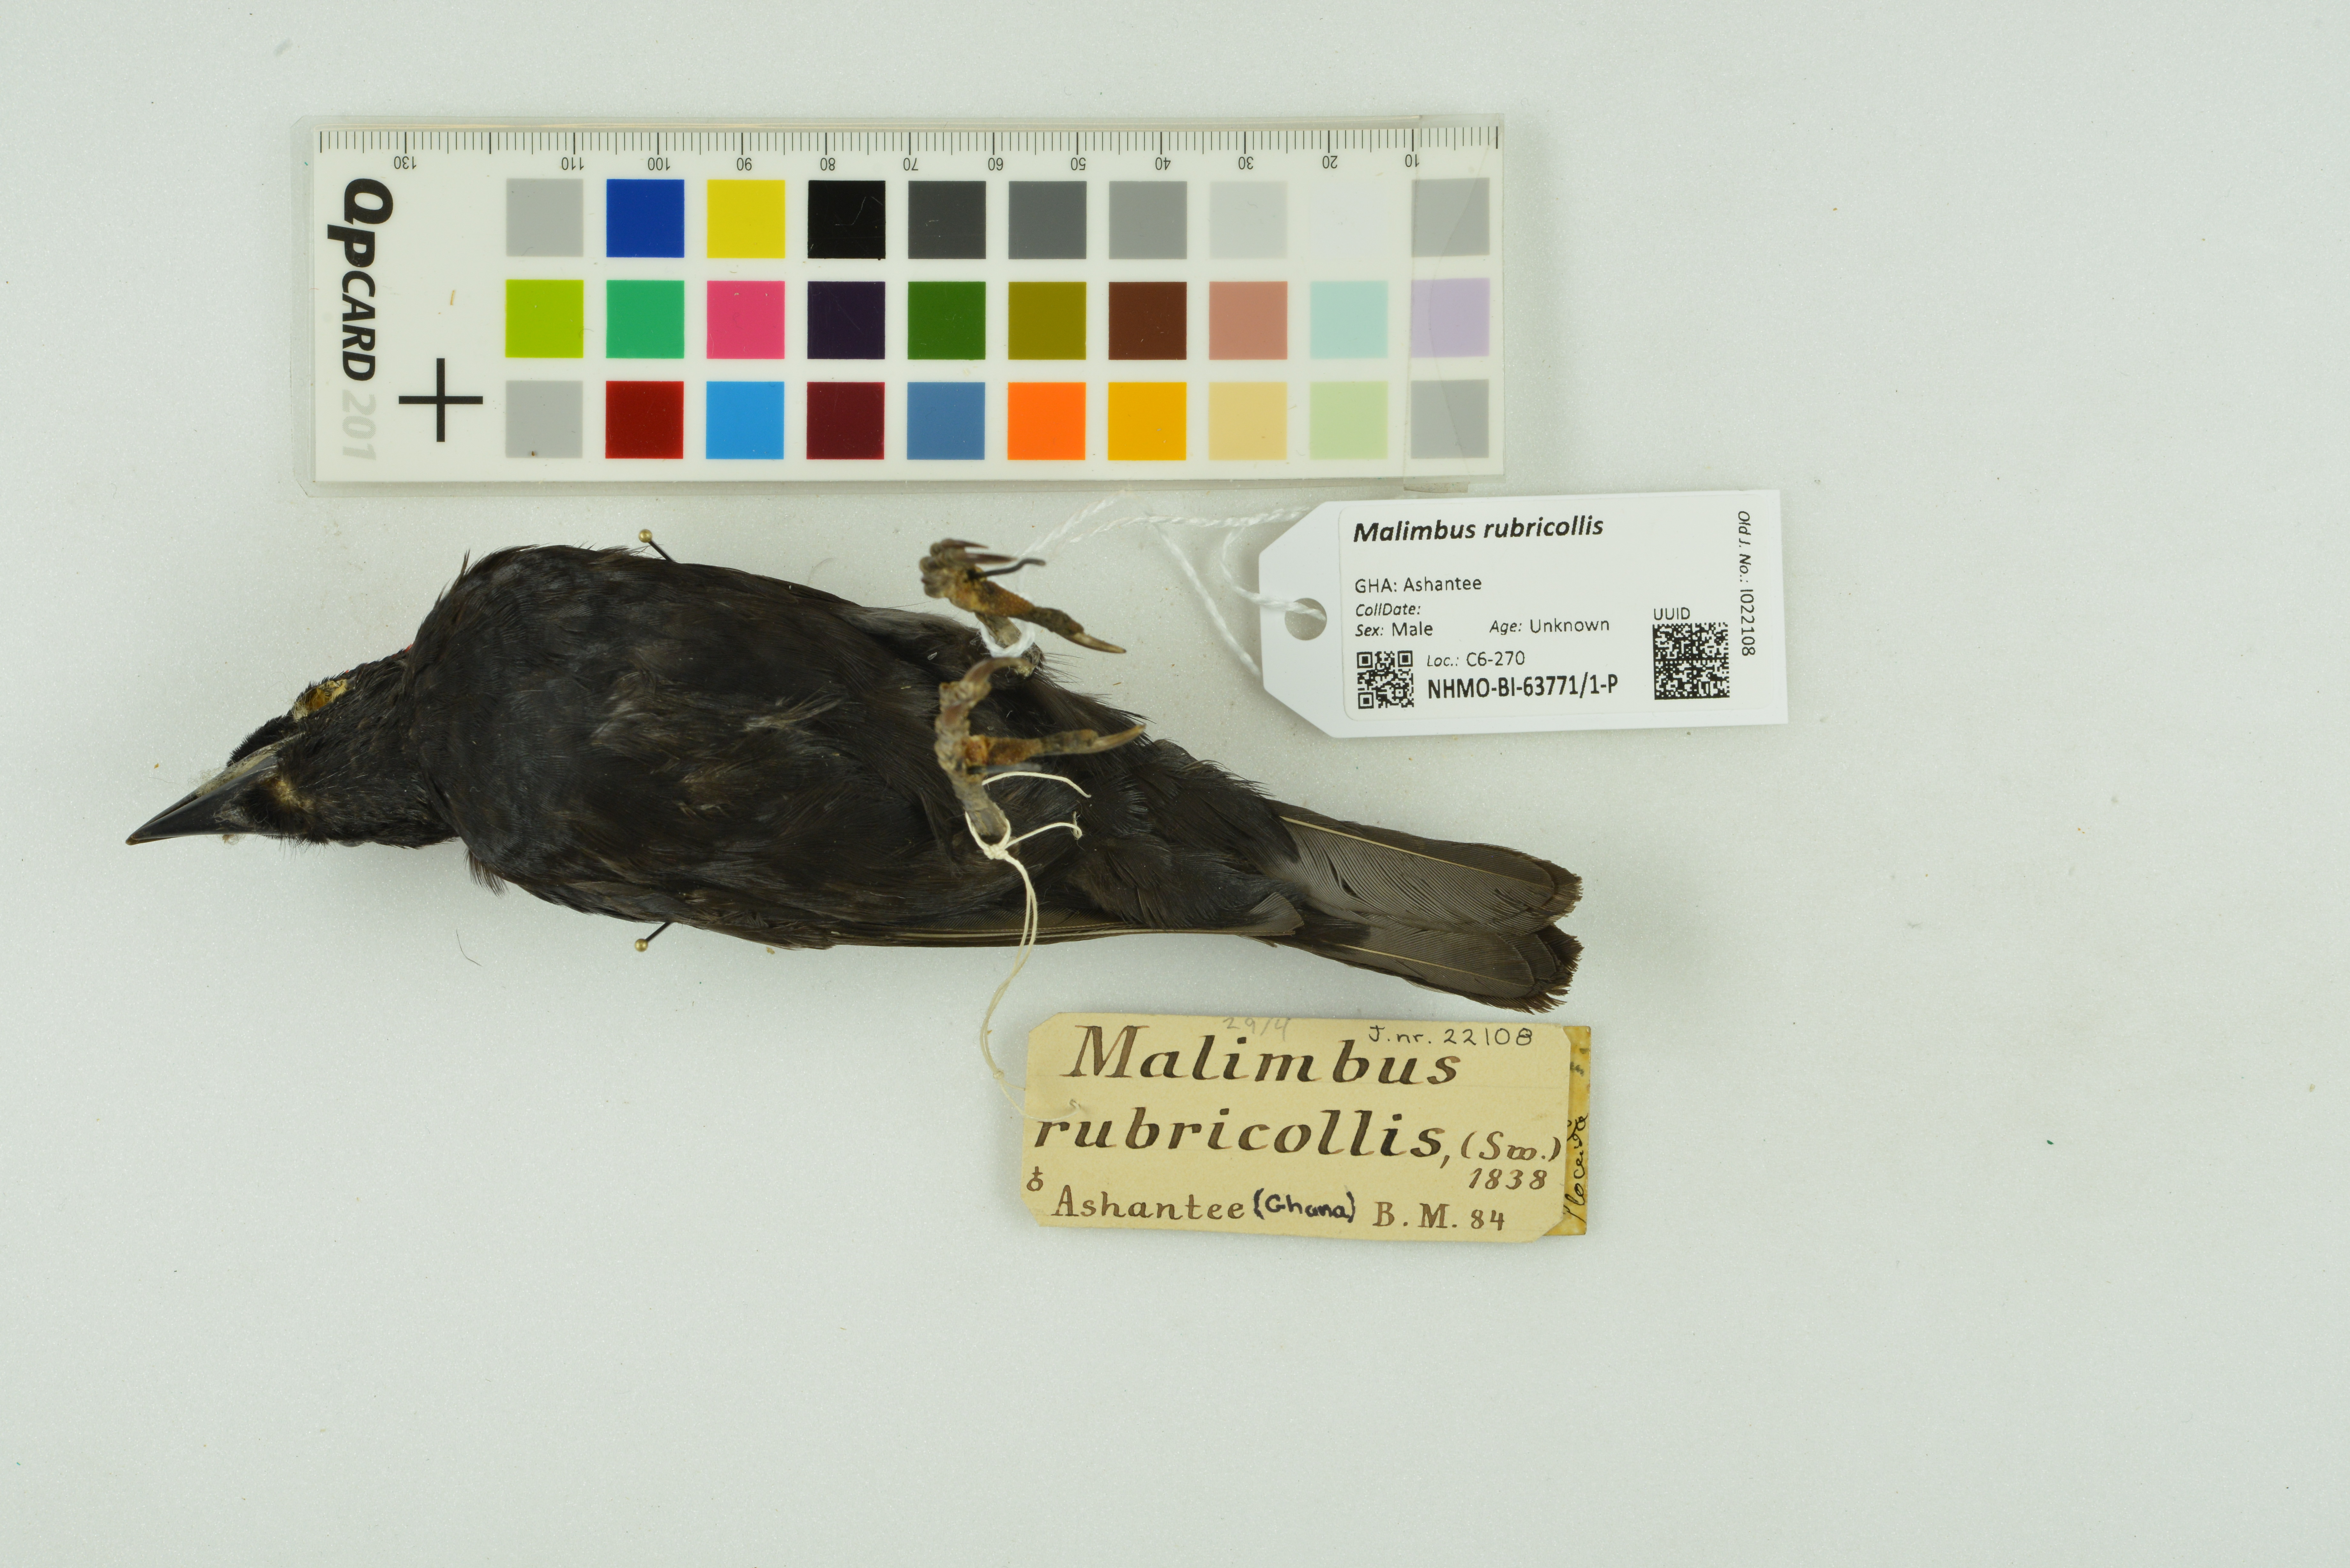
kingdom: Animalia
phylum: Chordata
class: Aves
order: Passeriformes
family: Ploceidae
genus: Malimbus
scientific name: Malimbus rubricollis
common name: Red-headed malimbe
